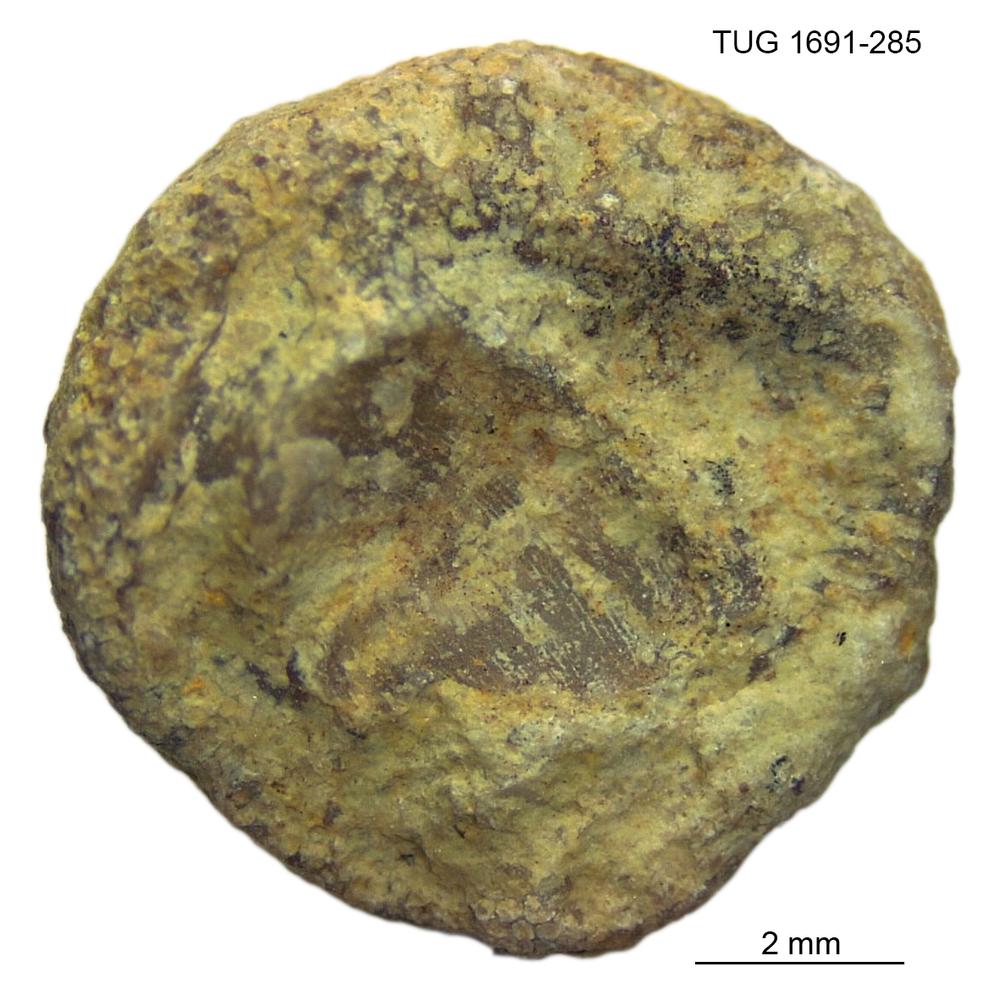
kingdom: Animalia
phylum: Bryozoa
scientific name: Bryozoa
